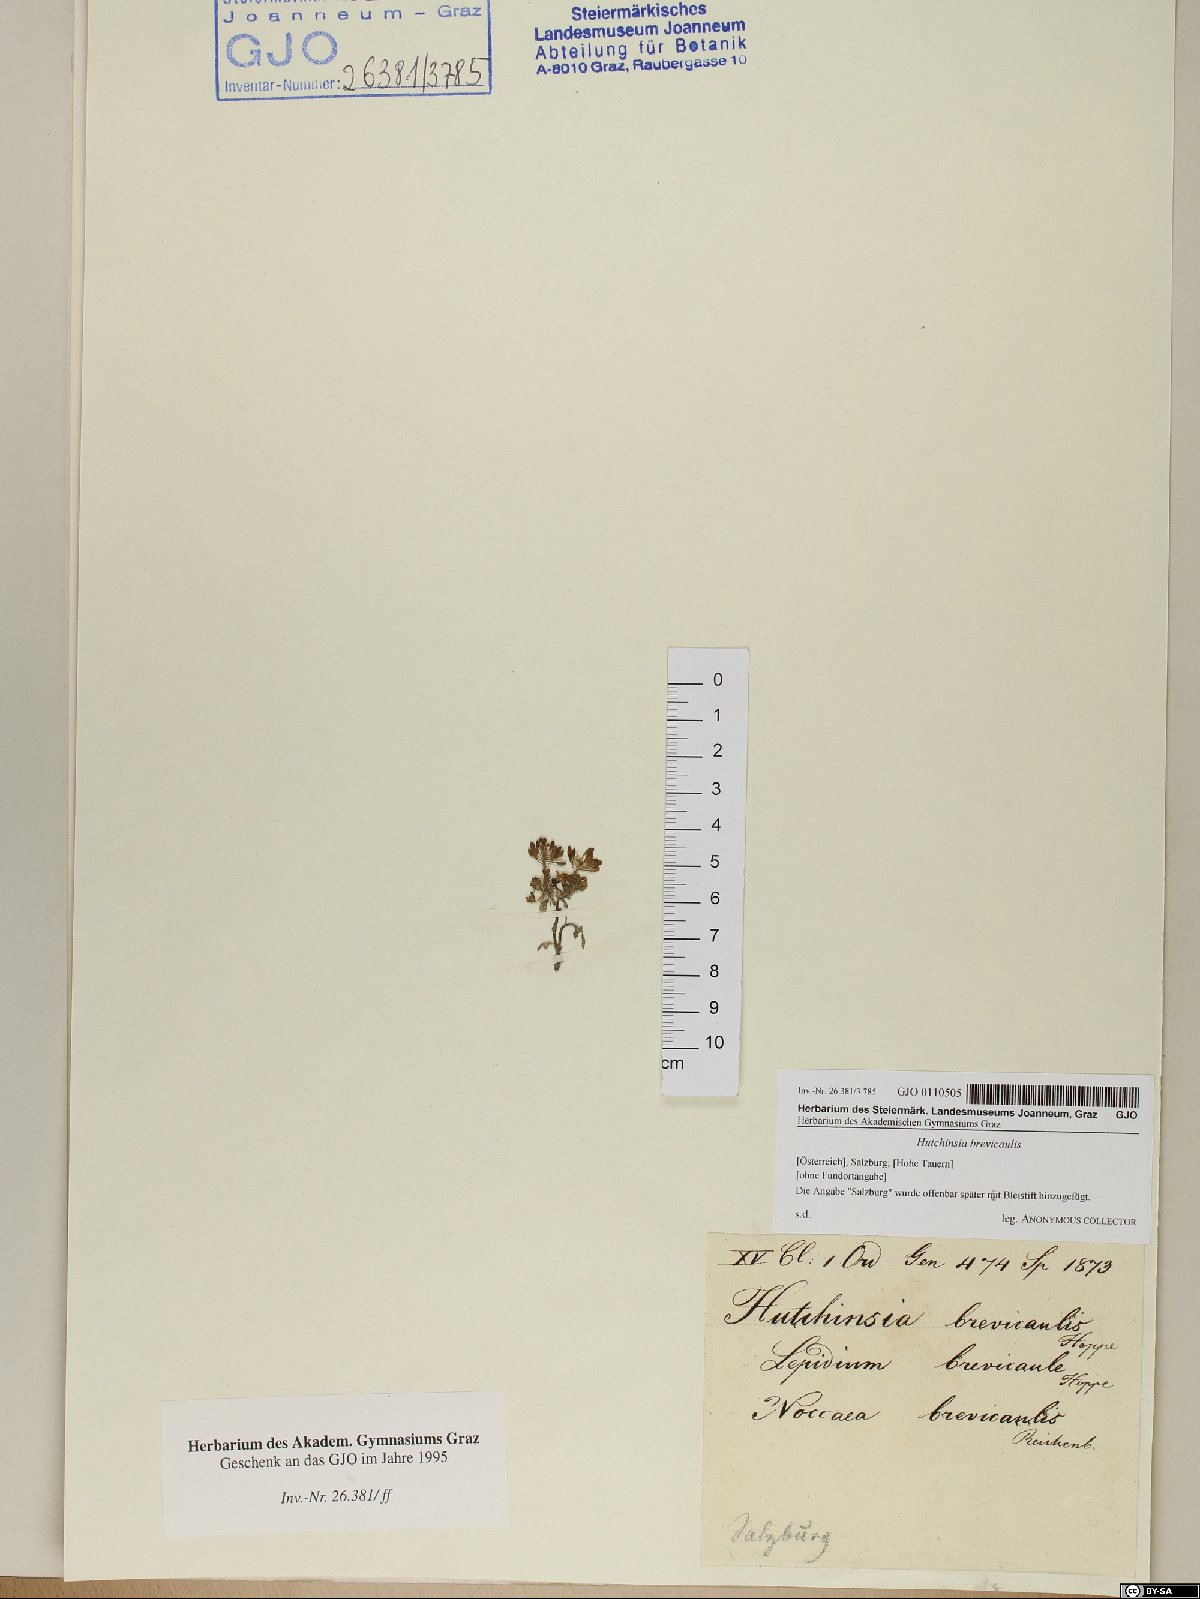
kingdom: Plantae
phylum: Tracheophyta
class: Magnoliopsida
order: Brassicales
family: Brassicaceae
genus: Hornungia
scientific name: Hornungia alpina
